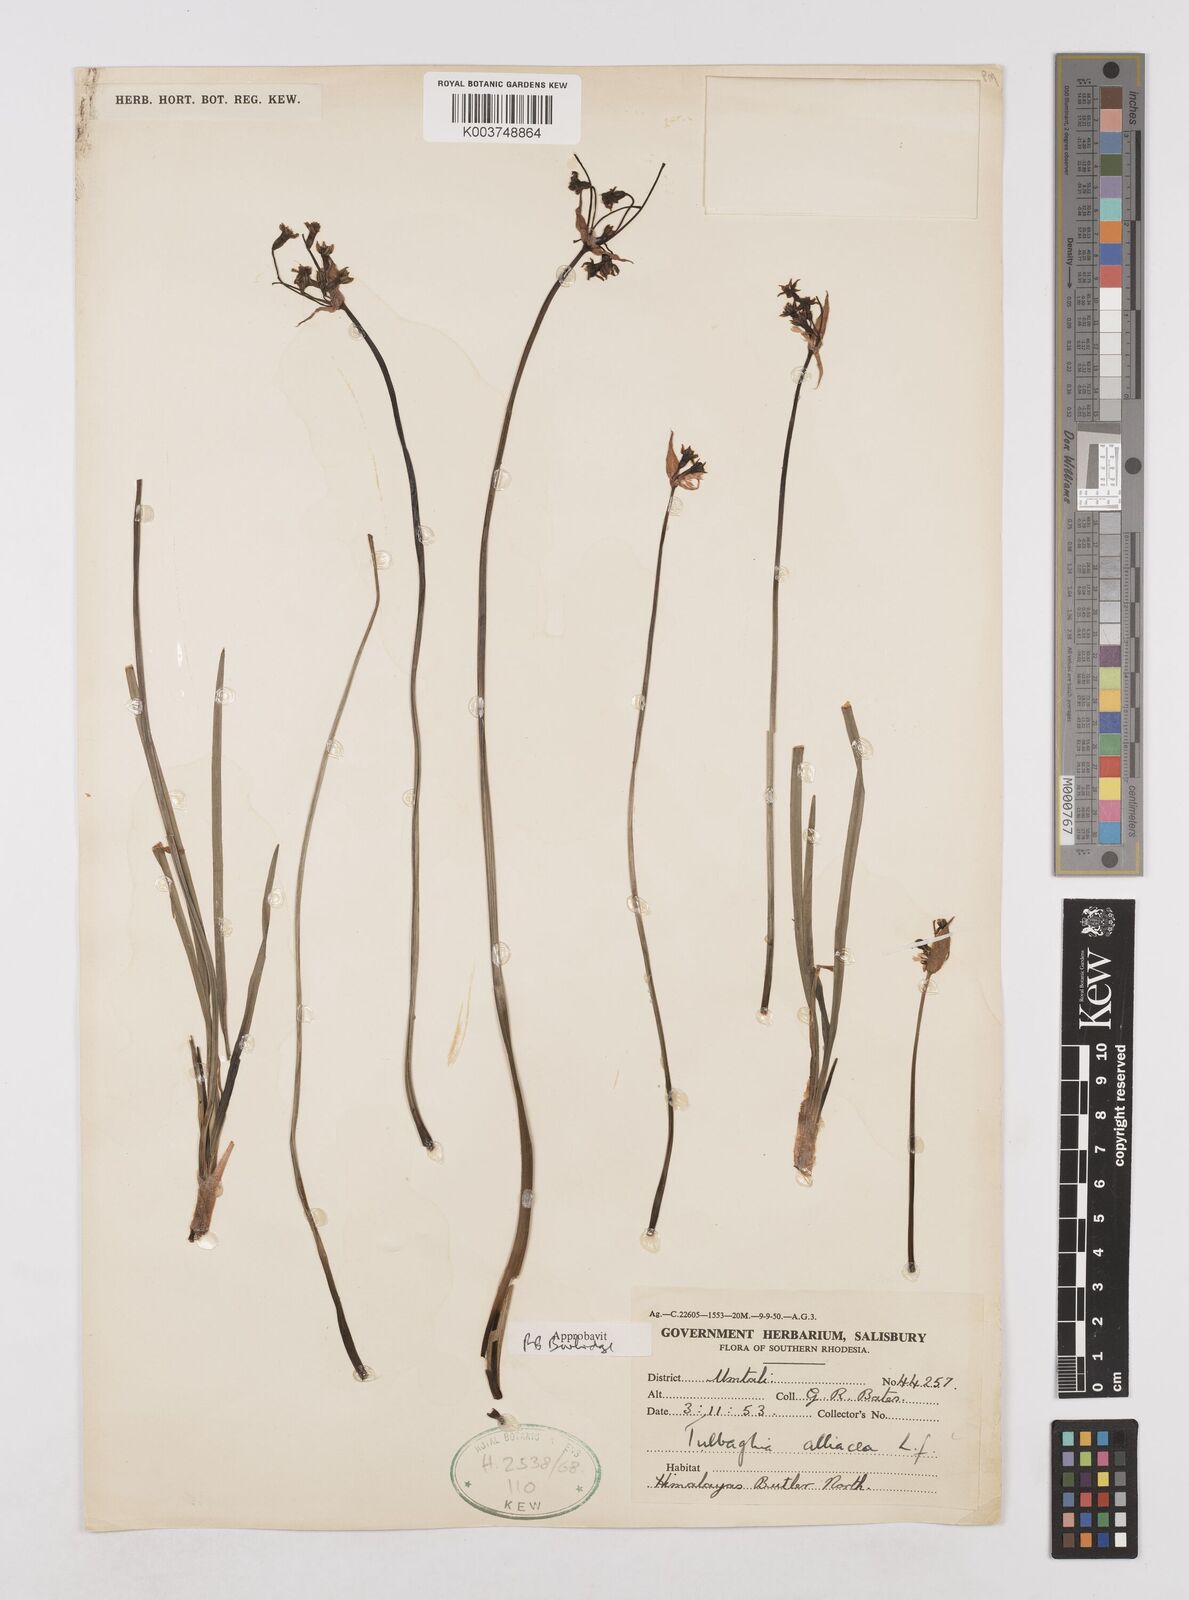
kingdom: Plantae
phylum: Tracheophyta
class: Liliopsida
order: Asparagales
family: Amaryllidaceae
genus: Tulbaghia
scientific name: Tulbaghia alliacea
